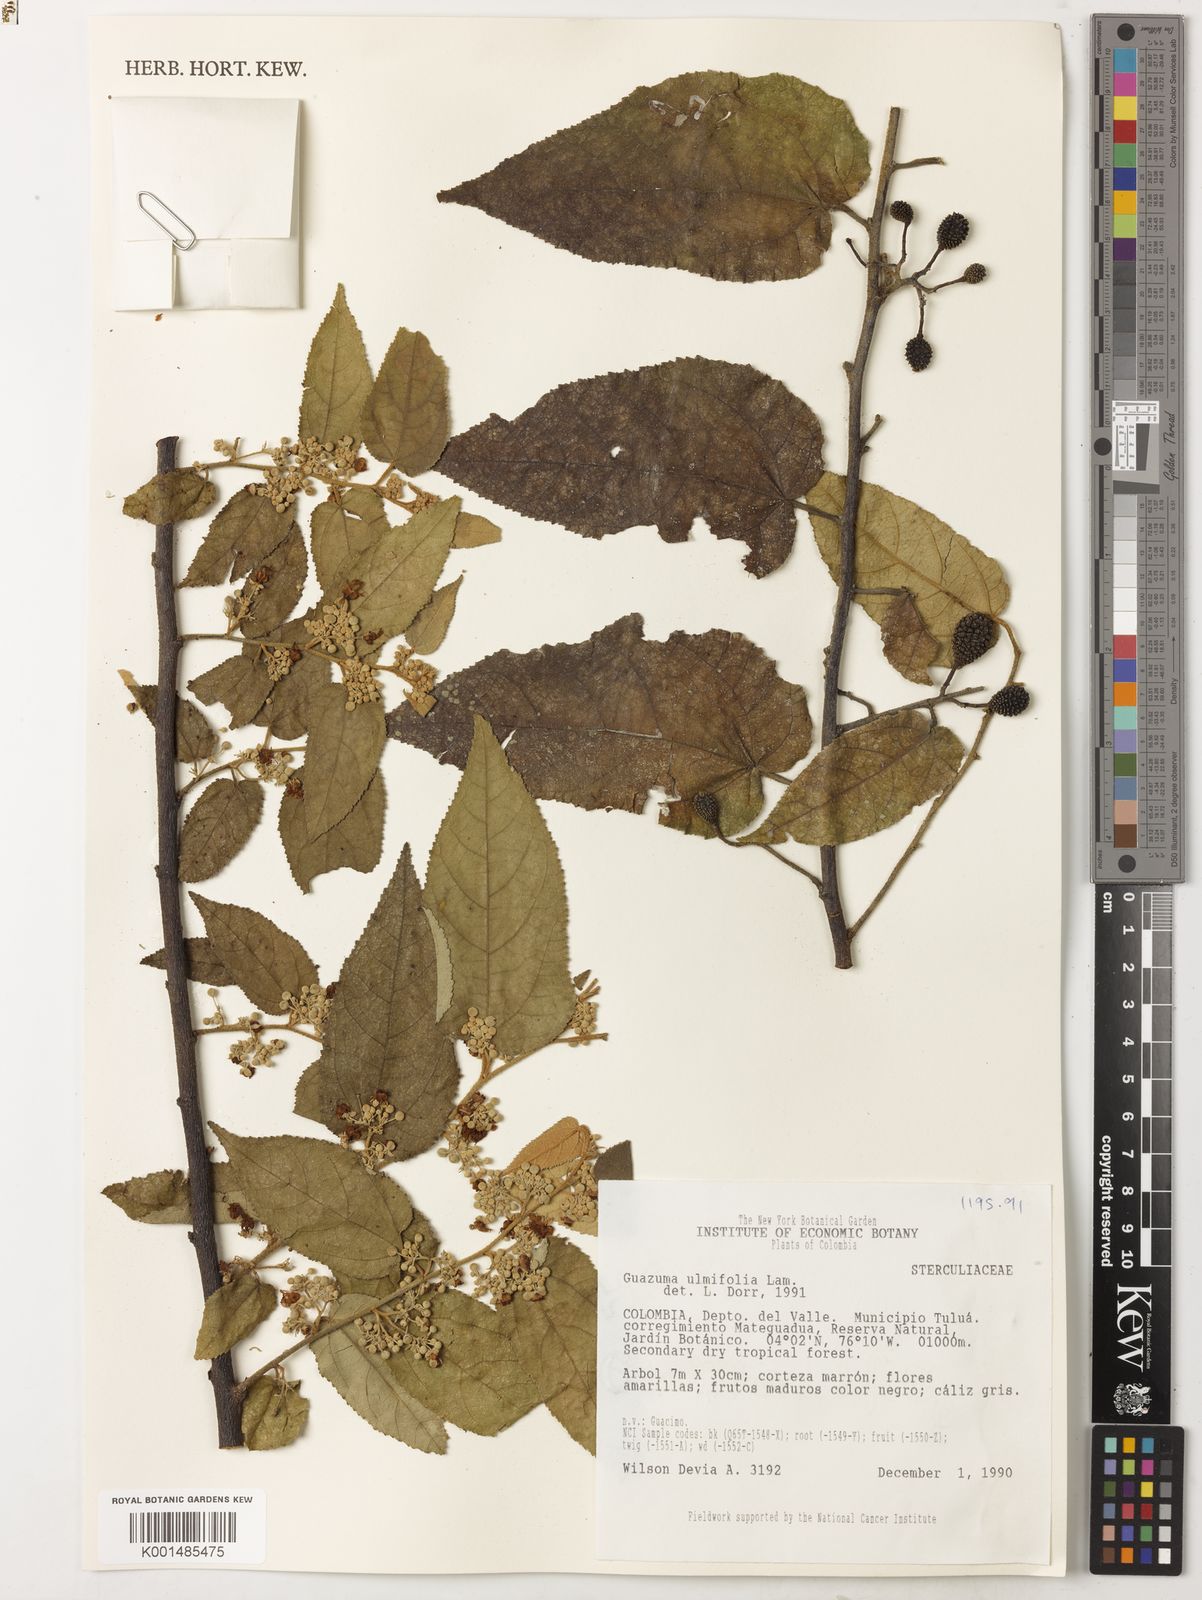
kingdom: Plantae
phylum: Tracheophyta
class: Magnoliopsida
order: Malvales
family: Malvaceae
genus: Guazuma
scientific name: Guazuma ulmifolia
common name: Bastard-cedar
